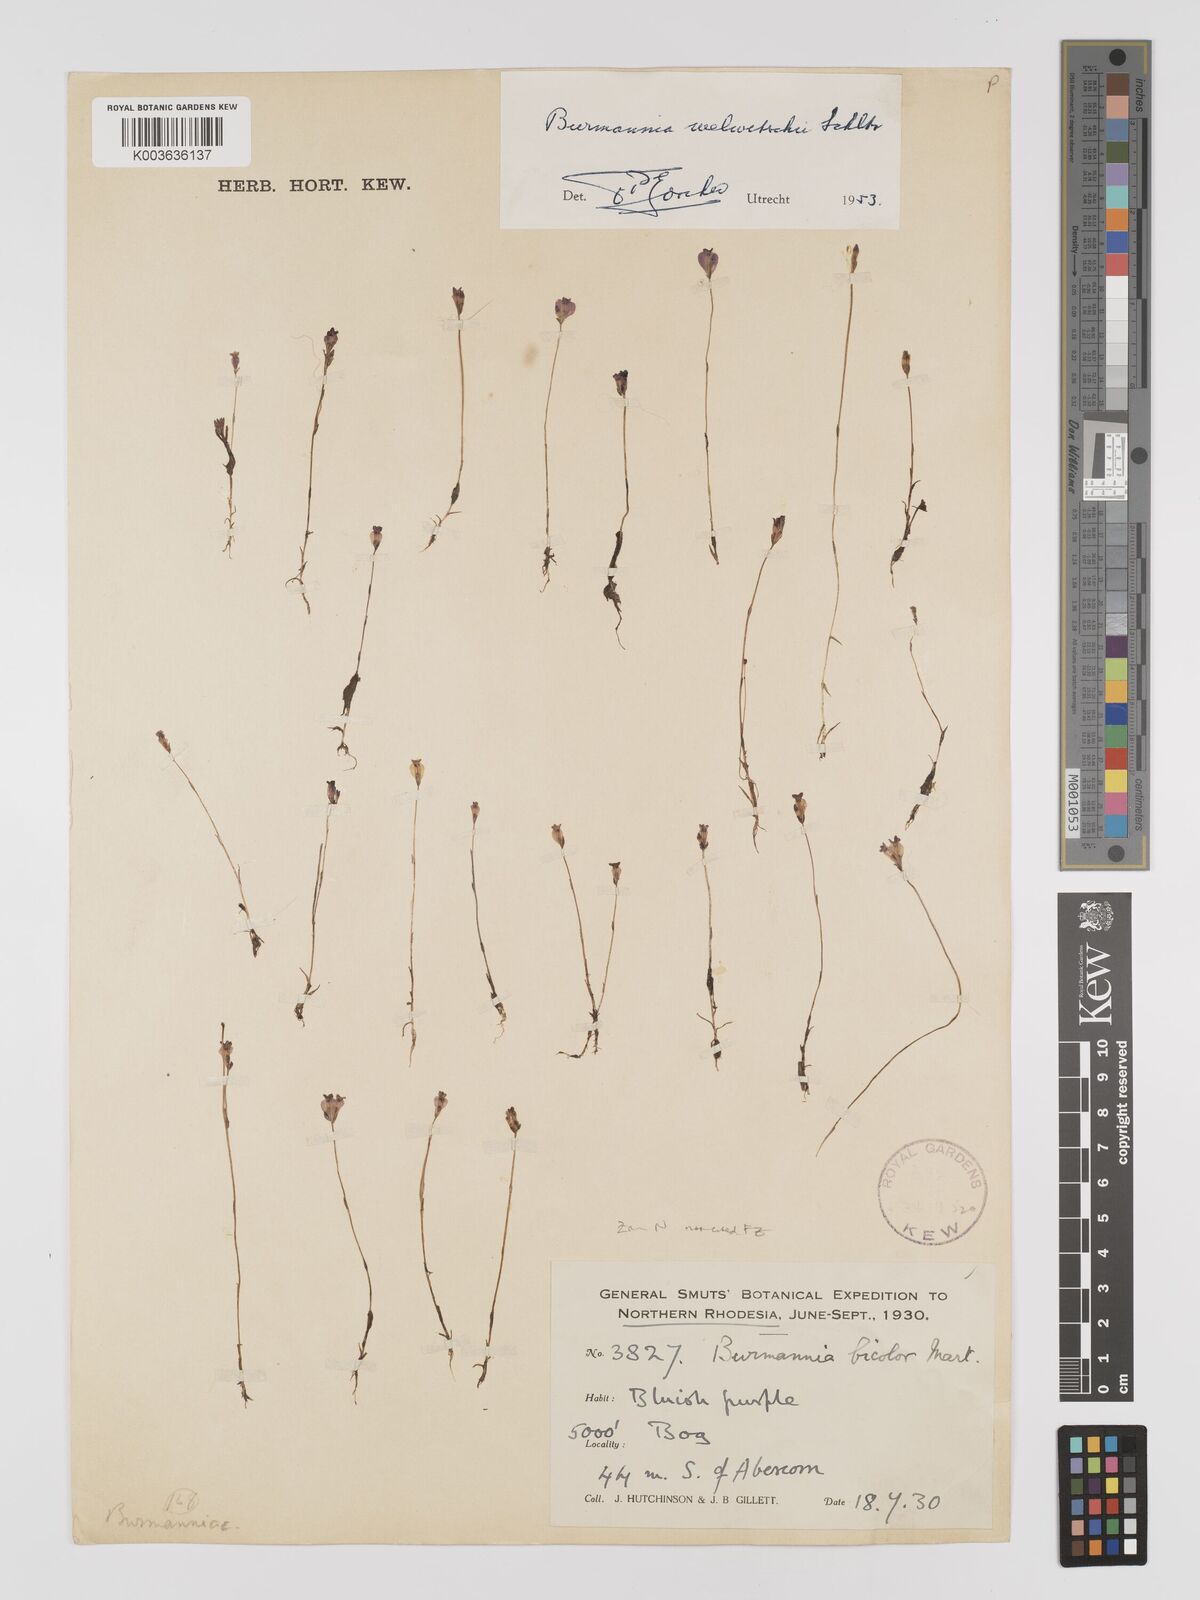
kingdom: Plantae
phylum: Tracheophyta
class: Liliopsida
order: Dioscoreales
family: Burmanniaceae
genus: Burmannia
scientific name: Burmannia madagascariensis
